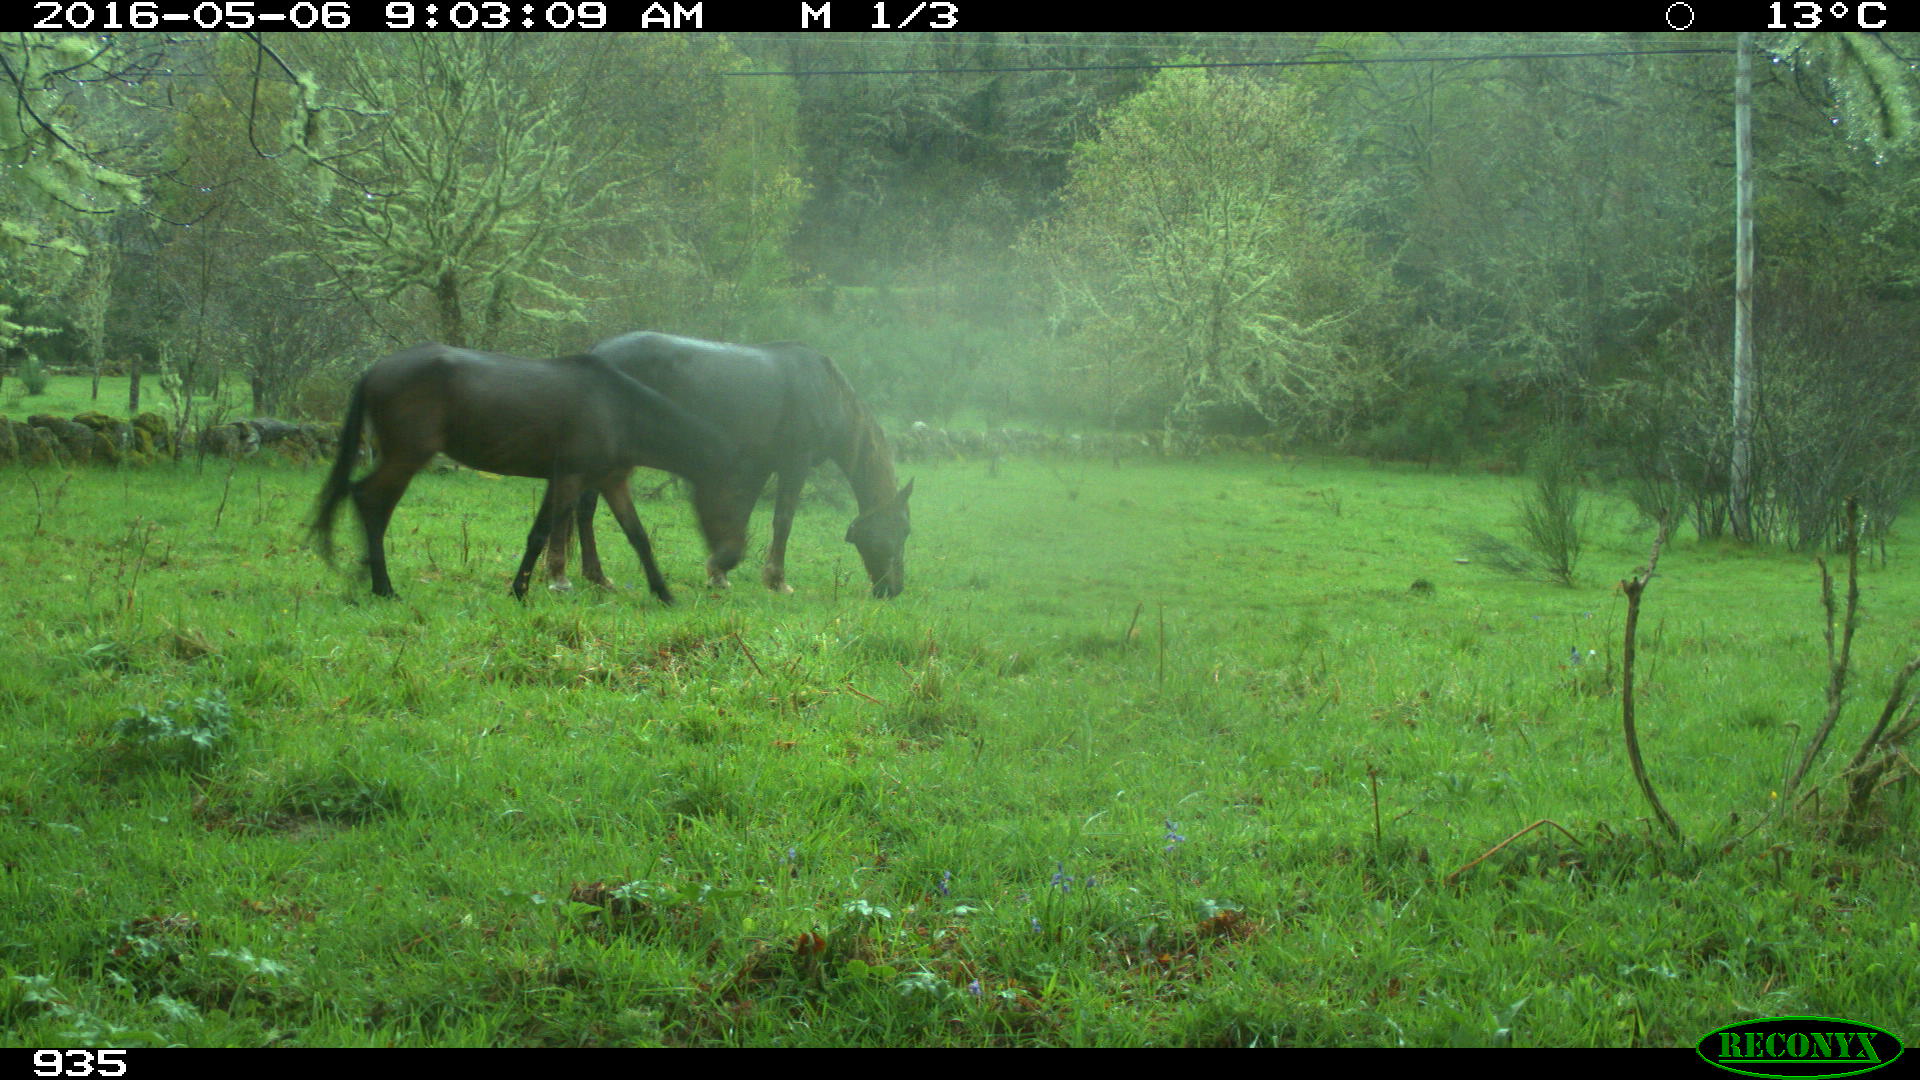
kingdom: Animalia
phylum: Chordata
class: Mammalia
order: Perissodactyla
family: Equidae
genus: Equus
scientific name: Equus caballus
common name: Horse
